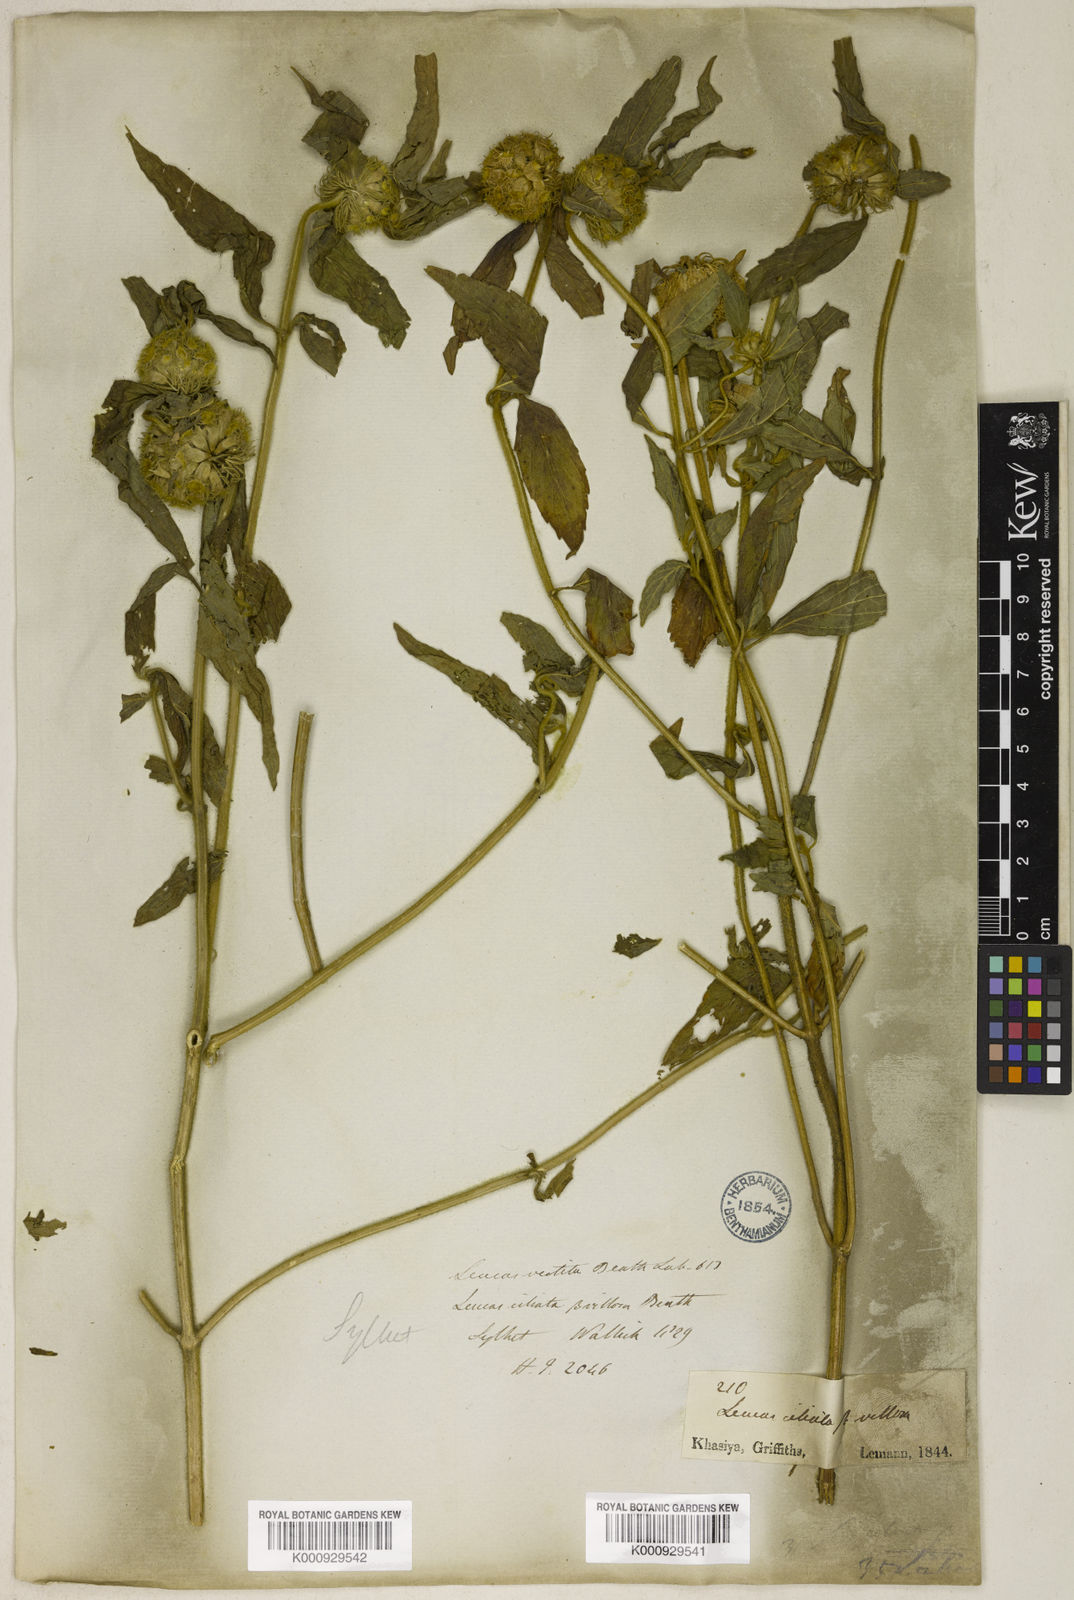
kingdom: Plantae
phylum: Tracheophyta
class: Magnoliopsida
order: Lamiales
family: Lamiaceae
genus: Leucas
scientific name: Leucas ciliata
